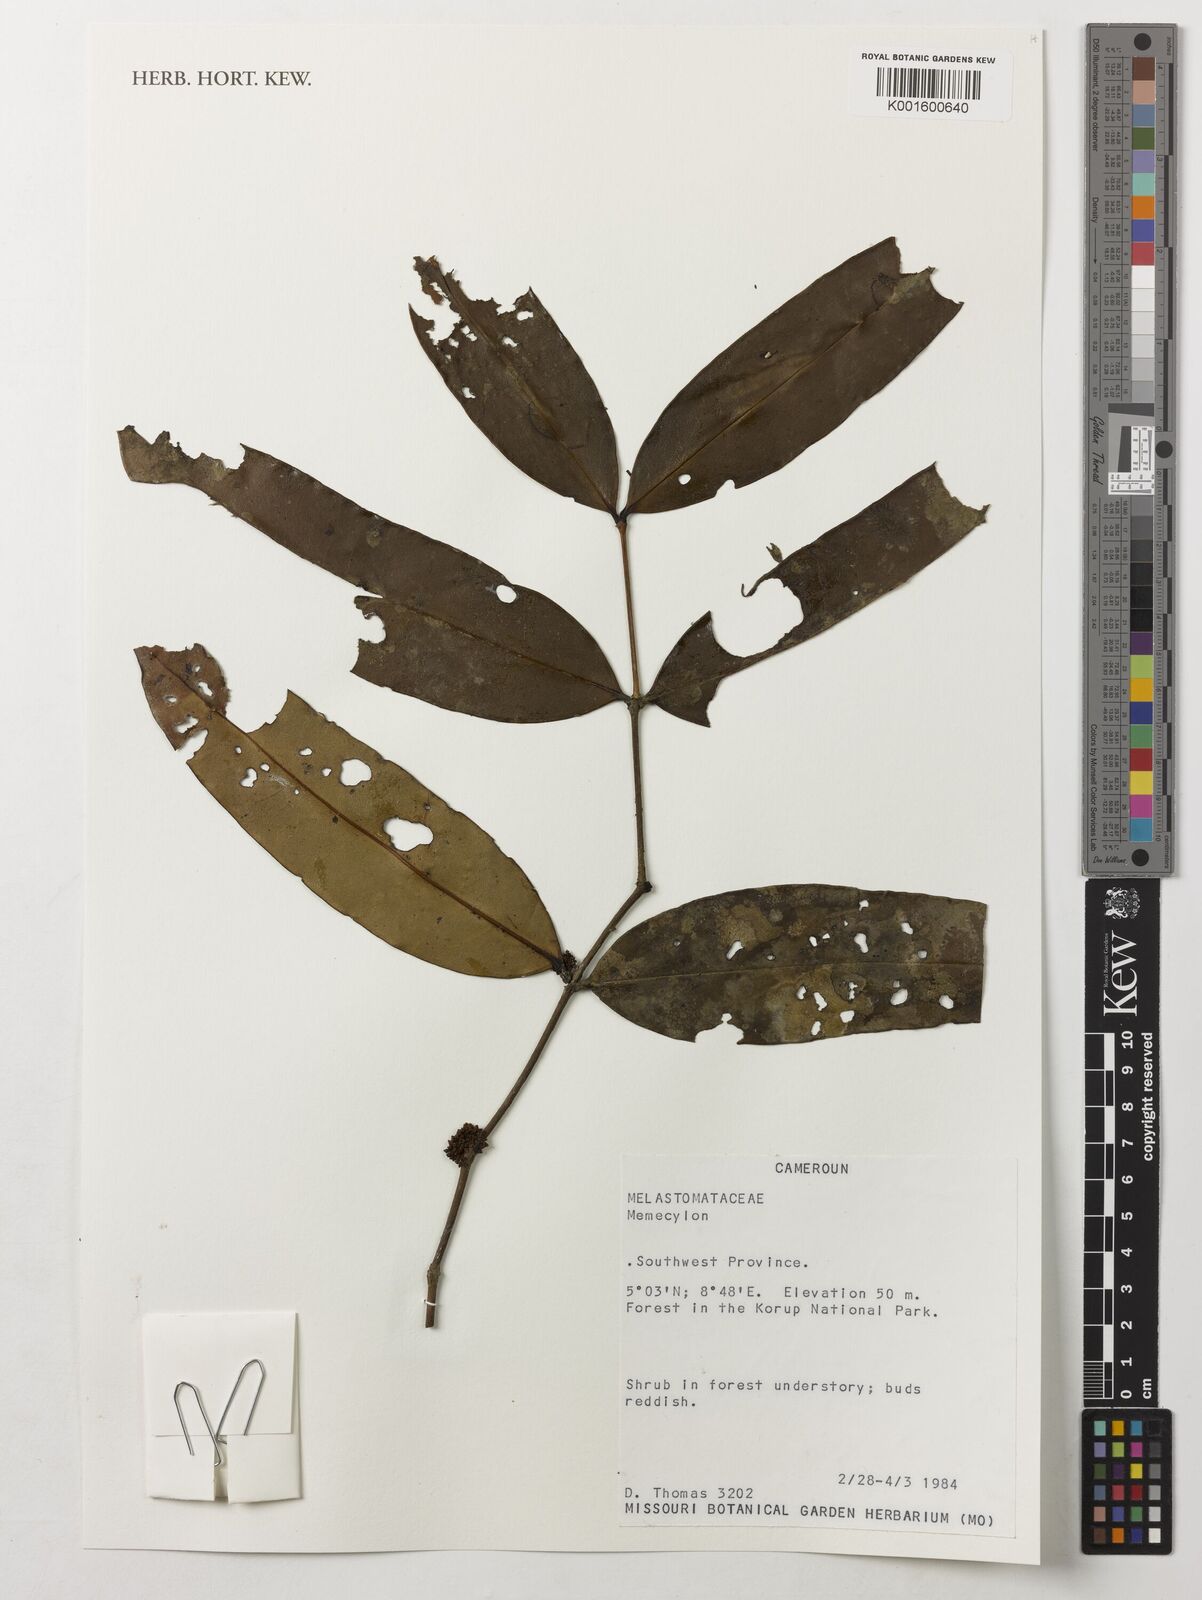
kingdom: Plantae
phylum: Tracheophyta
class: Magnoliopsida
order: Myrtales
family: Melastomataceae
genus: Memecylon
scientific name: Memecylon
